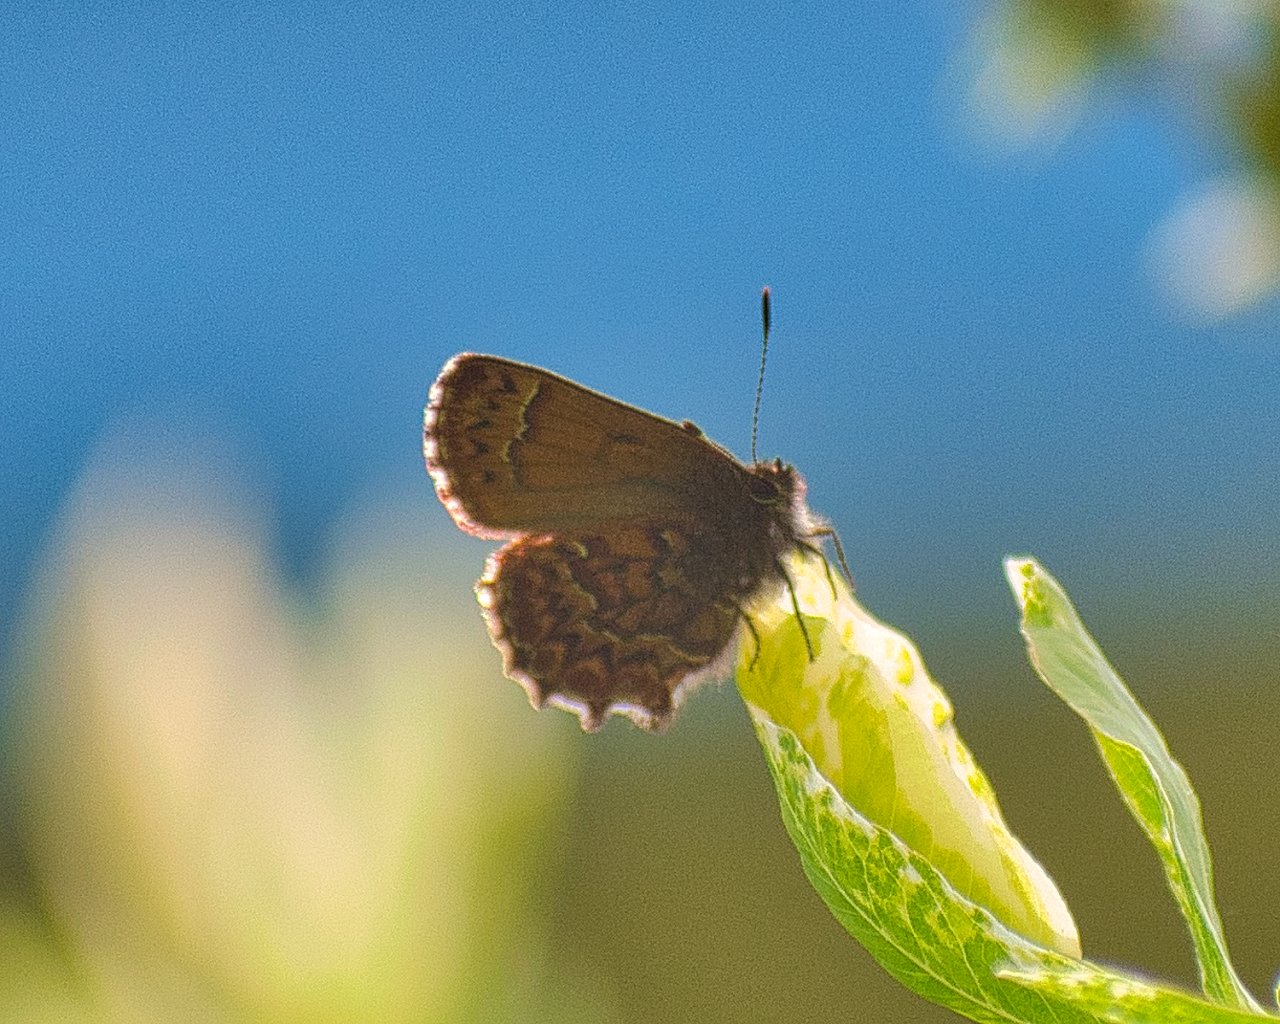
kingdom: Animalia
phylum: Arthropoda
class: Insecta
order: Lepidoptera
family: Lycaenidae
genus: Incisalia
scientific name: Incisalia eryphon
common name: Western Pine Elfin
